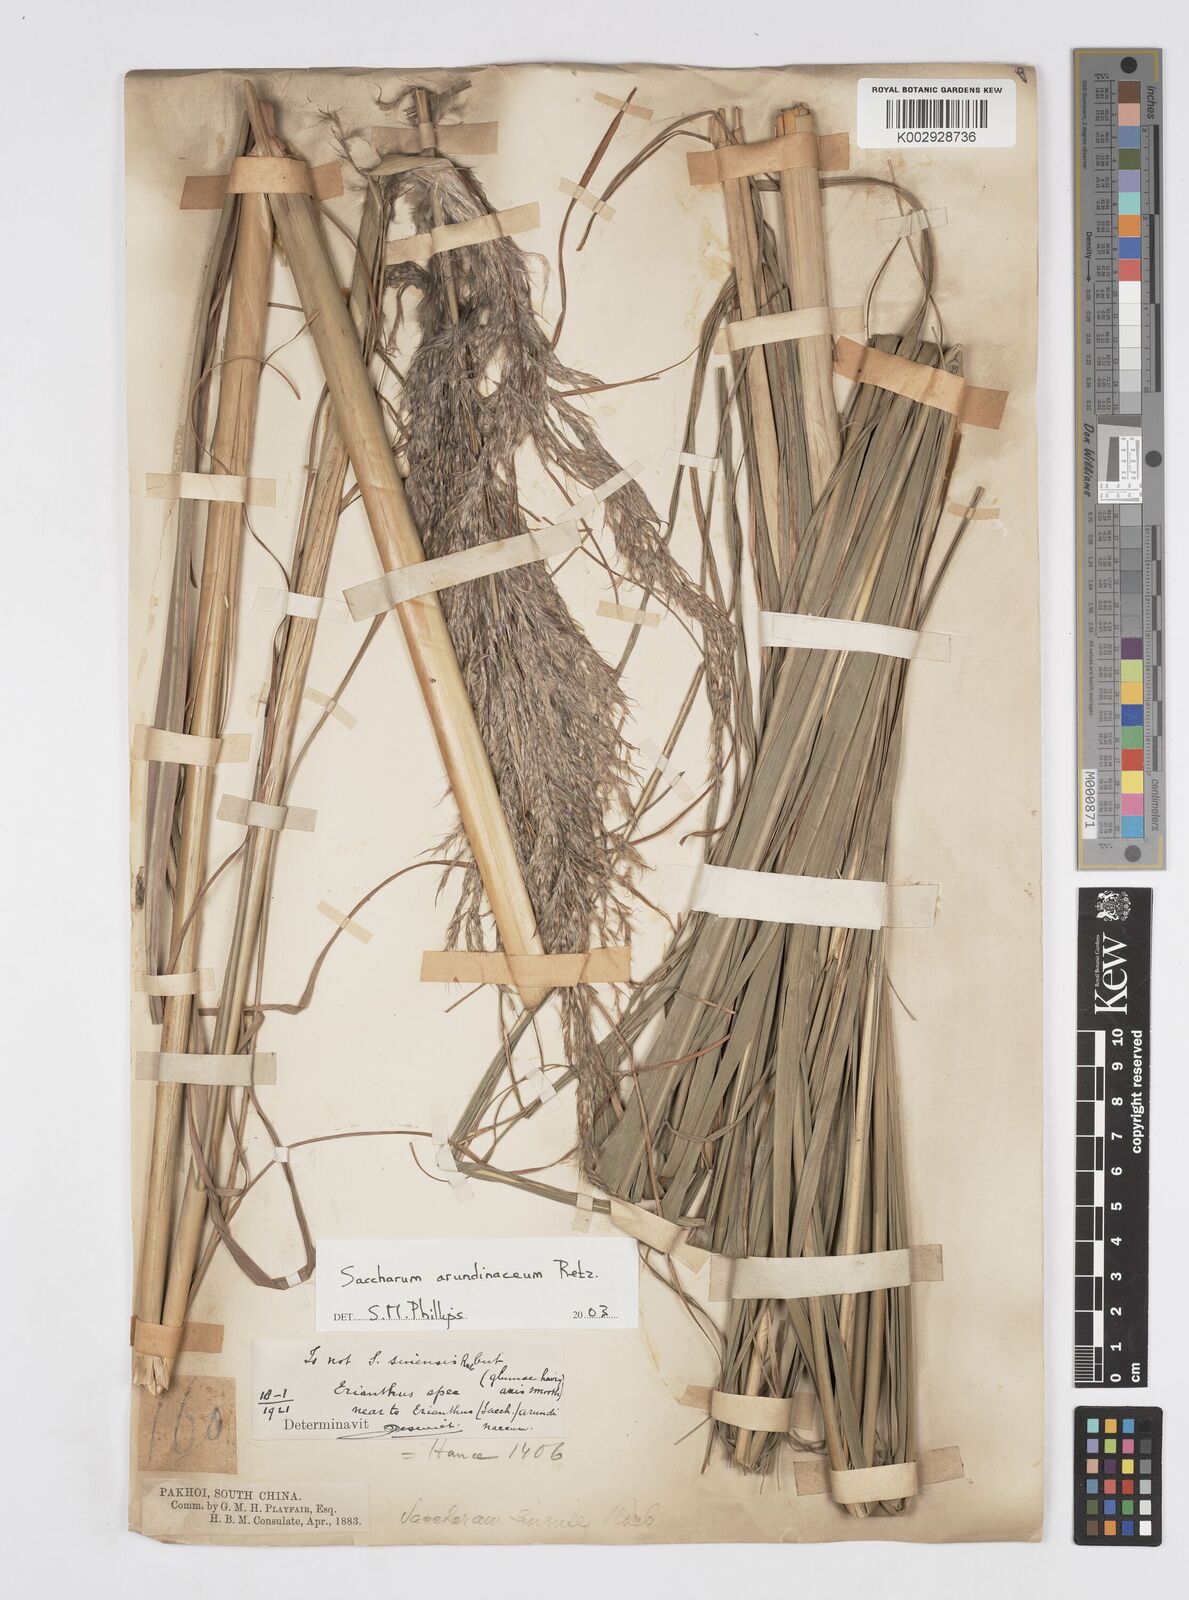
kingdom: Plantae
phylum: Tracheophyta
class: Liliopsida
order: Poales
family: Poaceae
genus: Tripidium
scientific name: Tripidium arundinaceum
